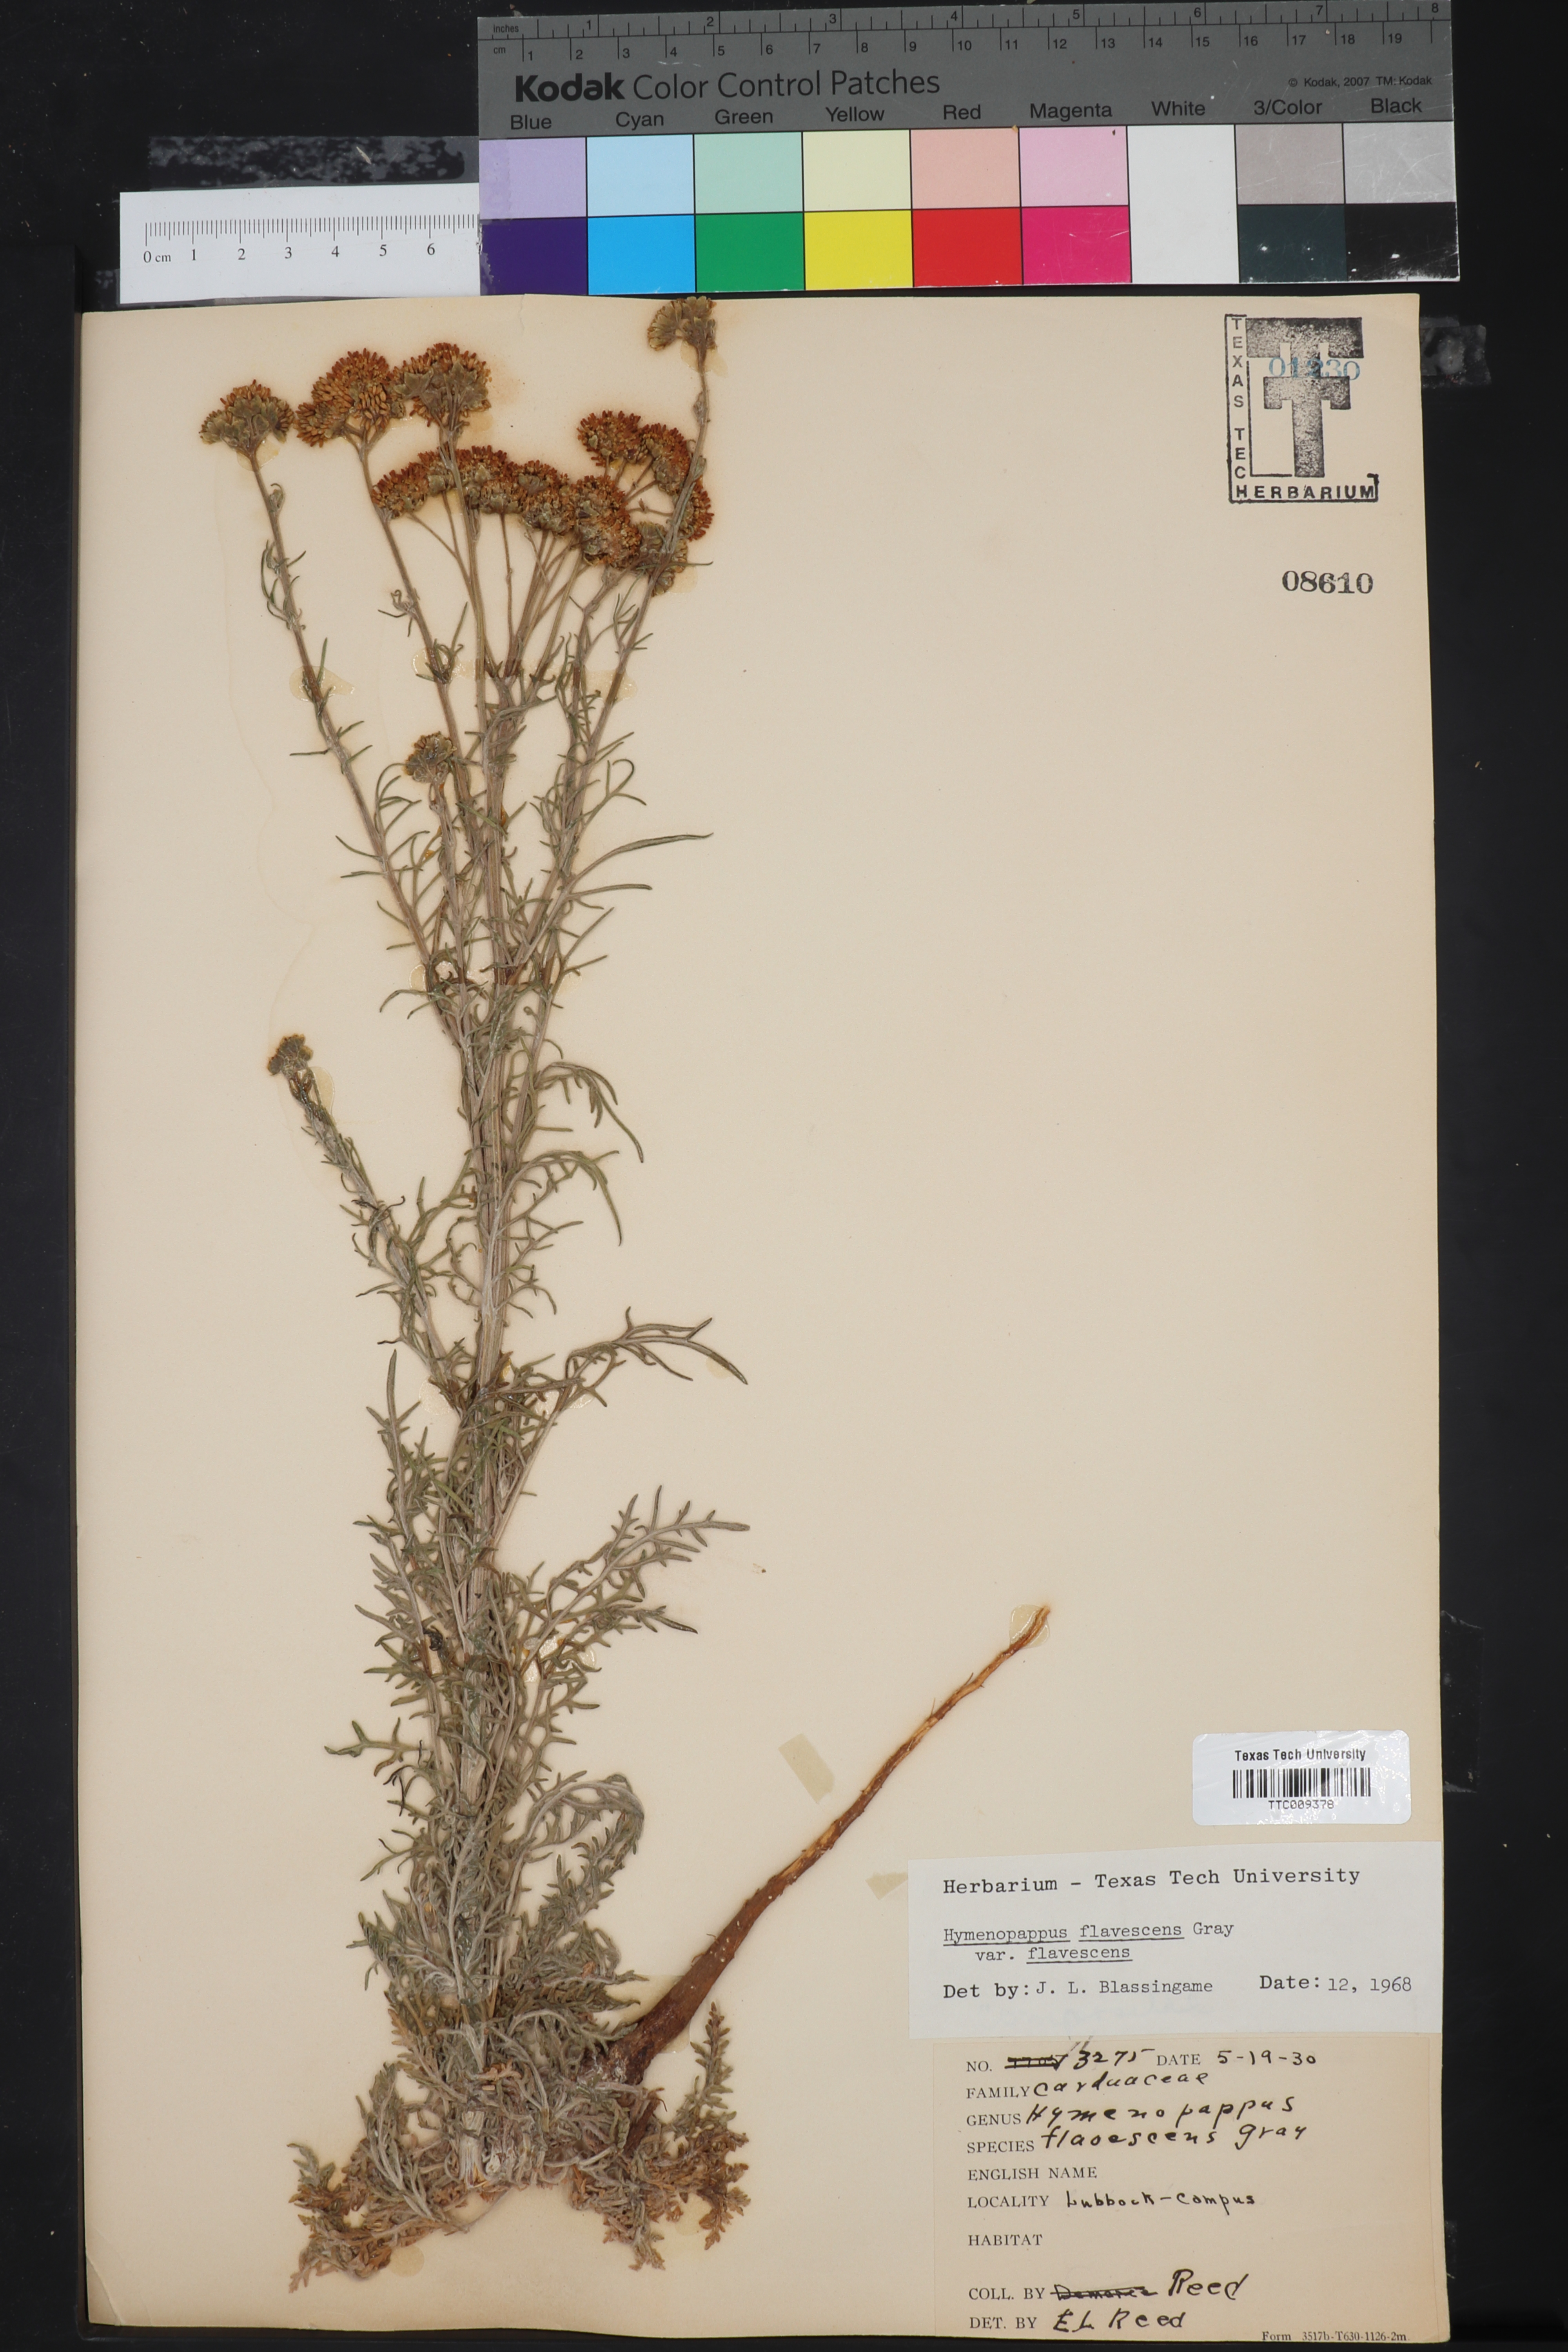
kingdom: Plantae
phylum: Tracheophyta
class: Magnoliopsida
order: Asterales
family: Asteraceae
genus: Hymenopappus
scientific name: Hymenopappus flavescens
